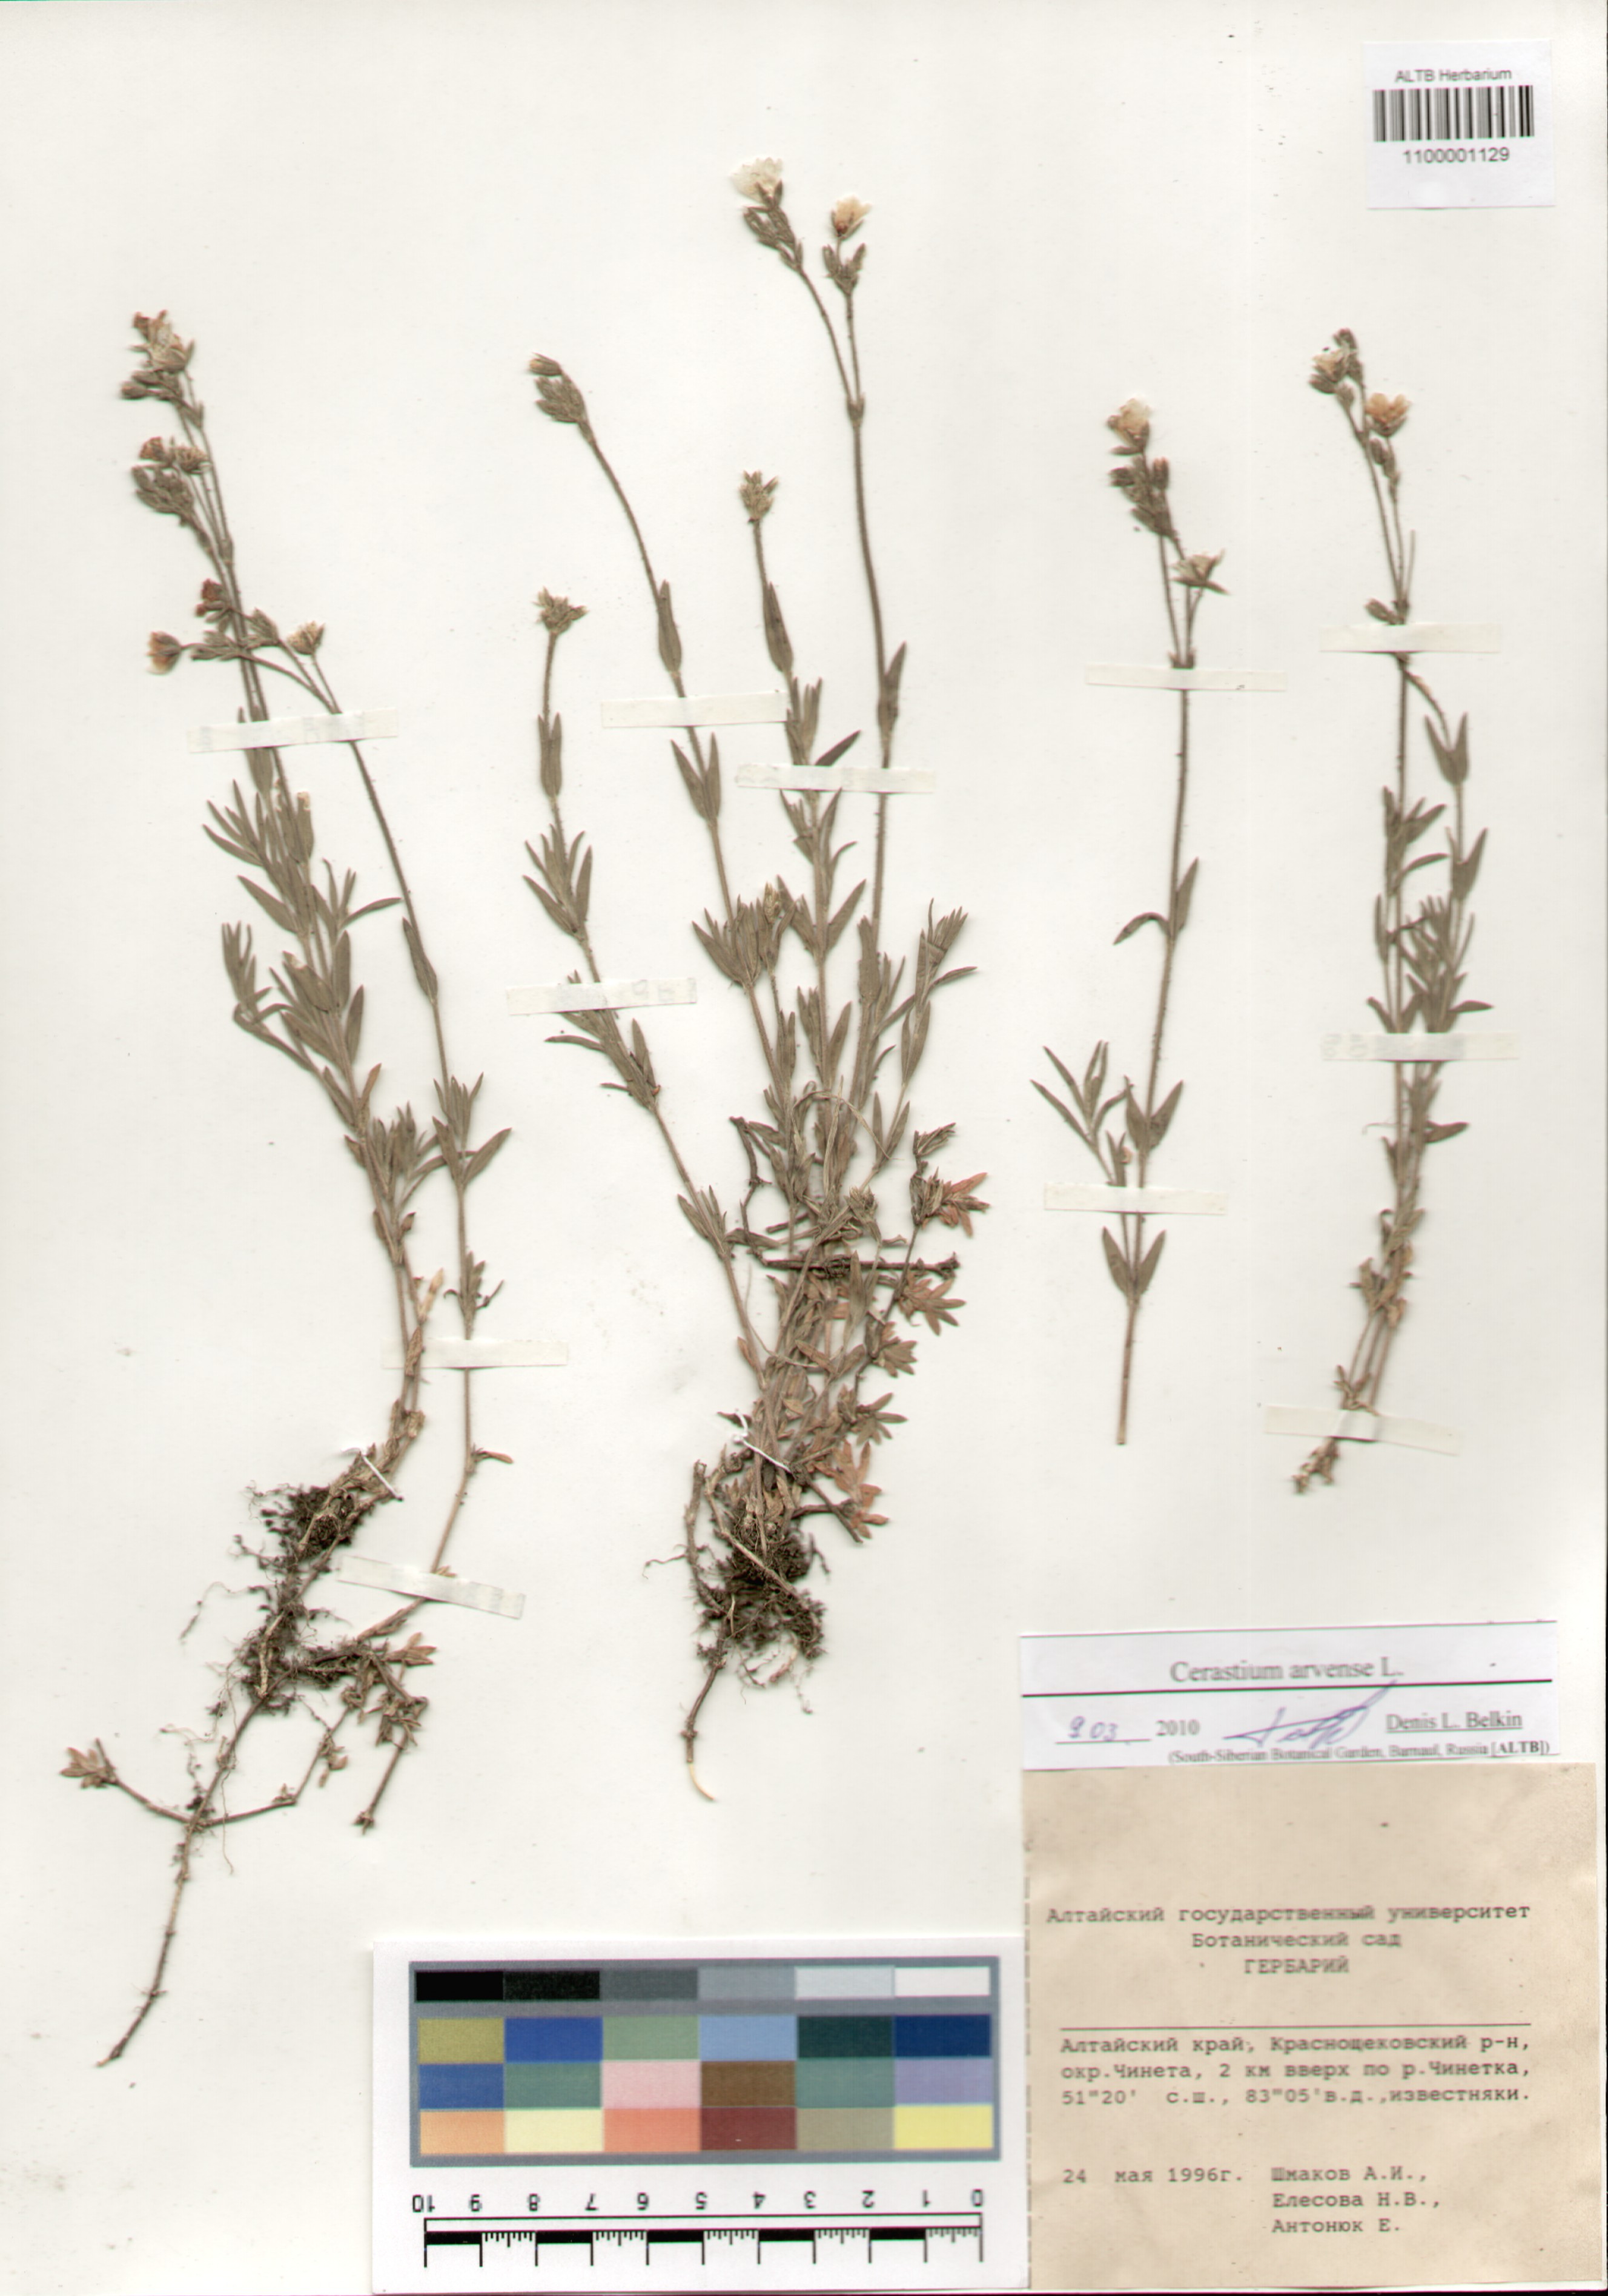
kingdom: Plantae
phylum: Tracheophyta
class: Magnoliopsida
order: Caryophyllales
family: Caryophyllaceae
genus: Cerastium
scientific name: Cerastium arvense
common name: Field mouse-ear
